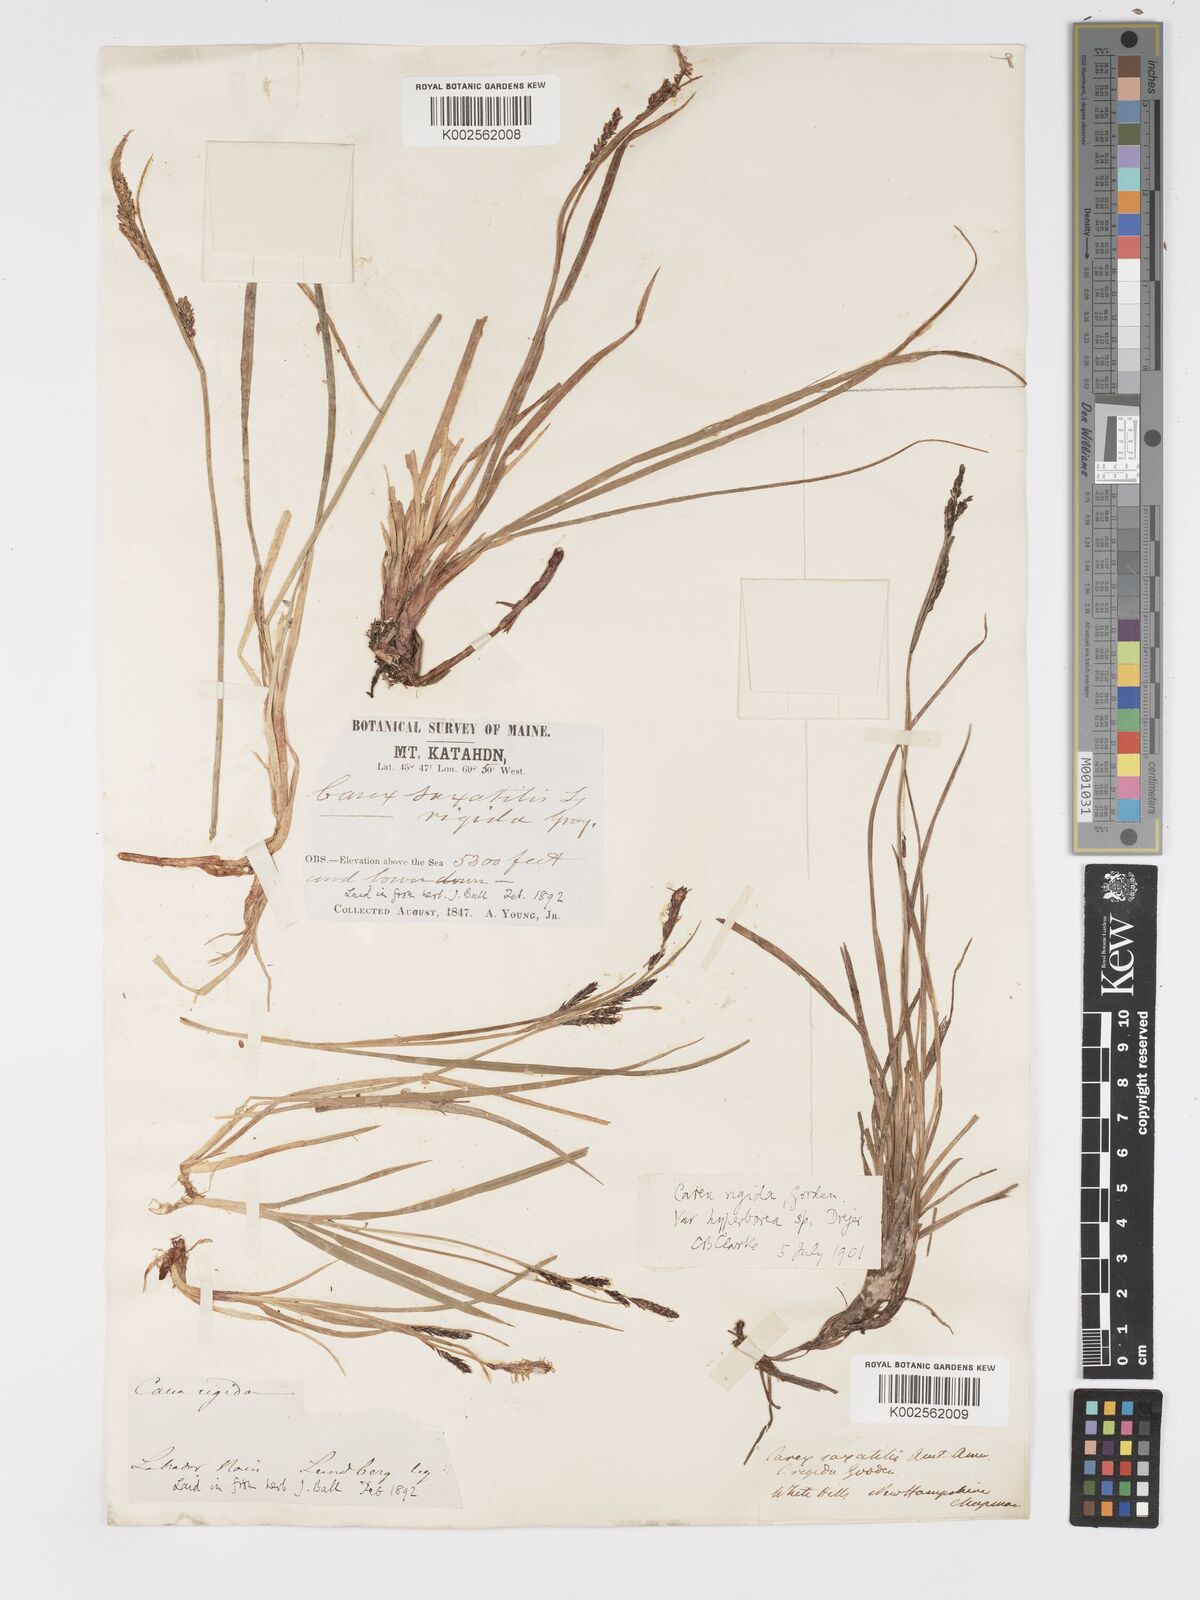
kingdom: Plantae
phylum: Tracheophyta
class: Liliopsida
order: Poales
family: Cyperaceae
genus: Carex
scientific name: Carex bigelowii
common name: Stiff sedge
